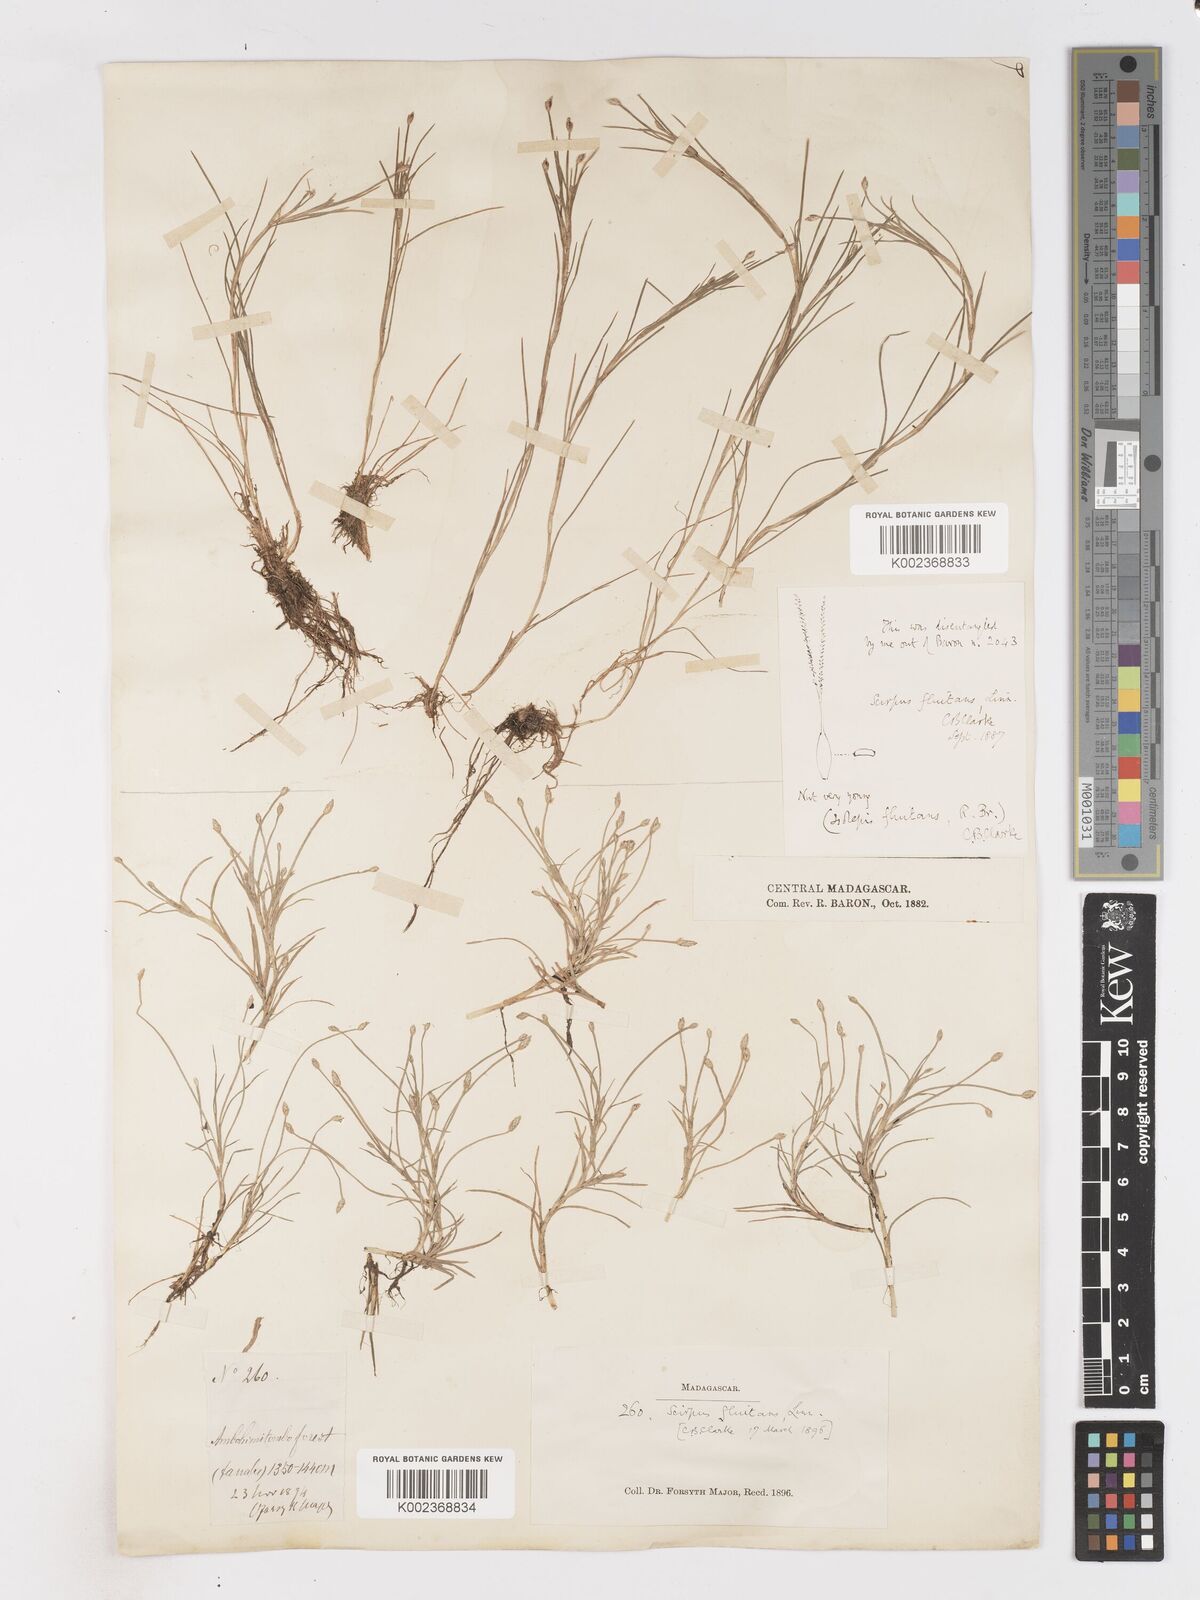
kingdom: Plantae
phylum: Tracheophyta
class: Liliopsida
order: Poales
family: Cyperaceae
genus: Isolepis
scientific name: Isolepis fluitans
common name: Floating club-rush
